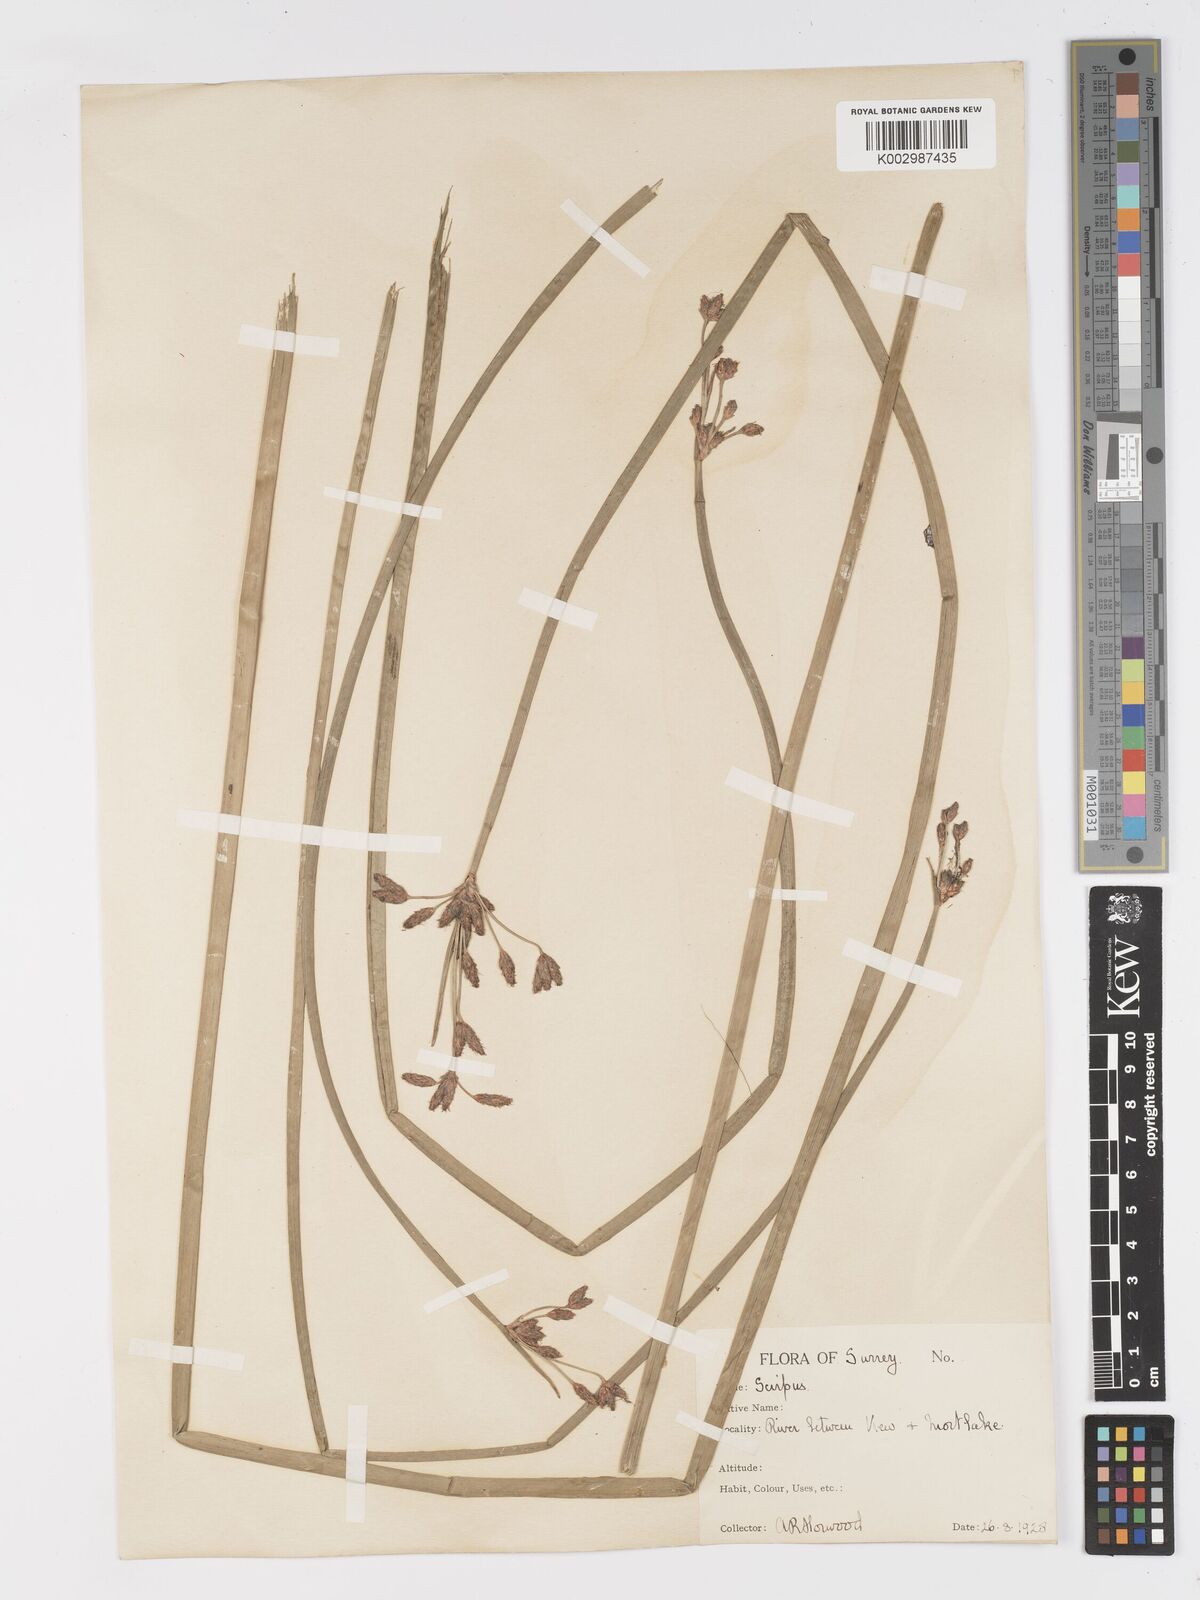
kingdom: Plantae
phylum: Tracheophyta
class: Liliopsida
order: Poales
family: Cyperaceae
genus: Schoenoplectus
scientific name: Schoenoplectus lacustris
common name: Common club-rush
